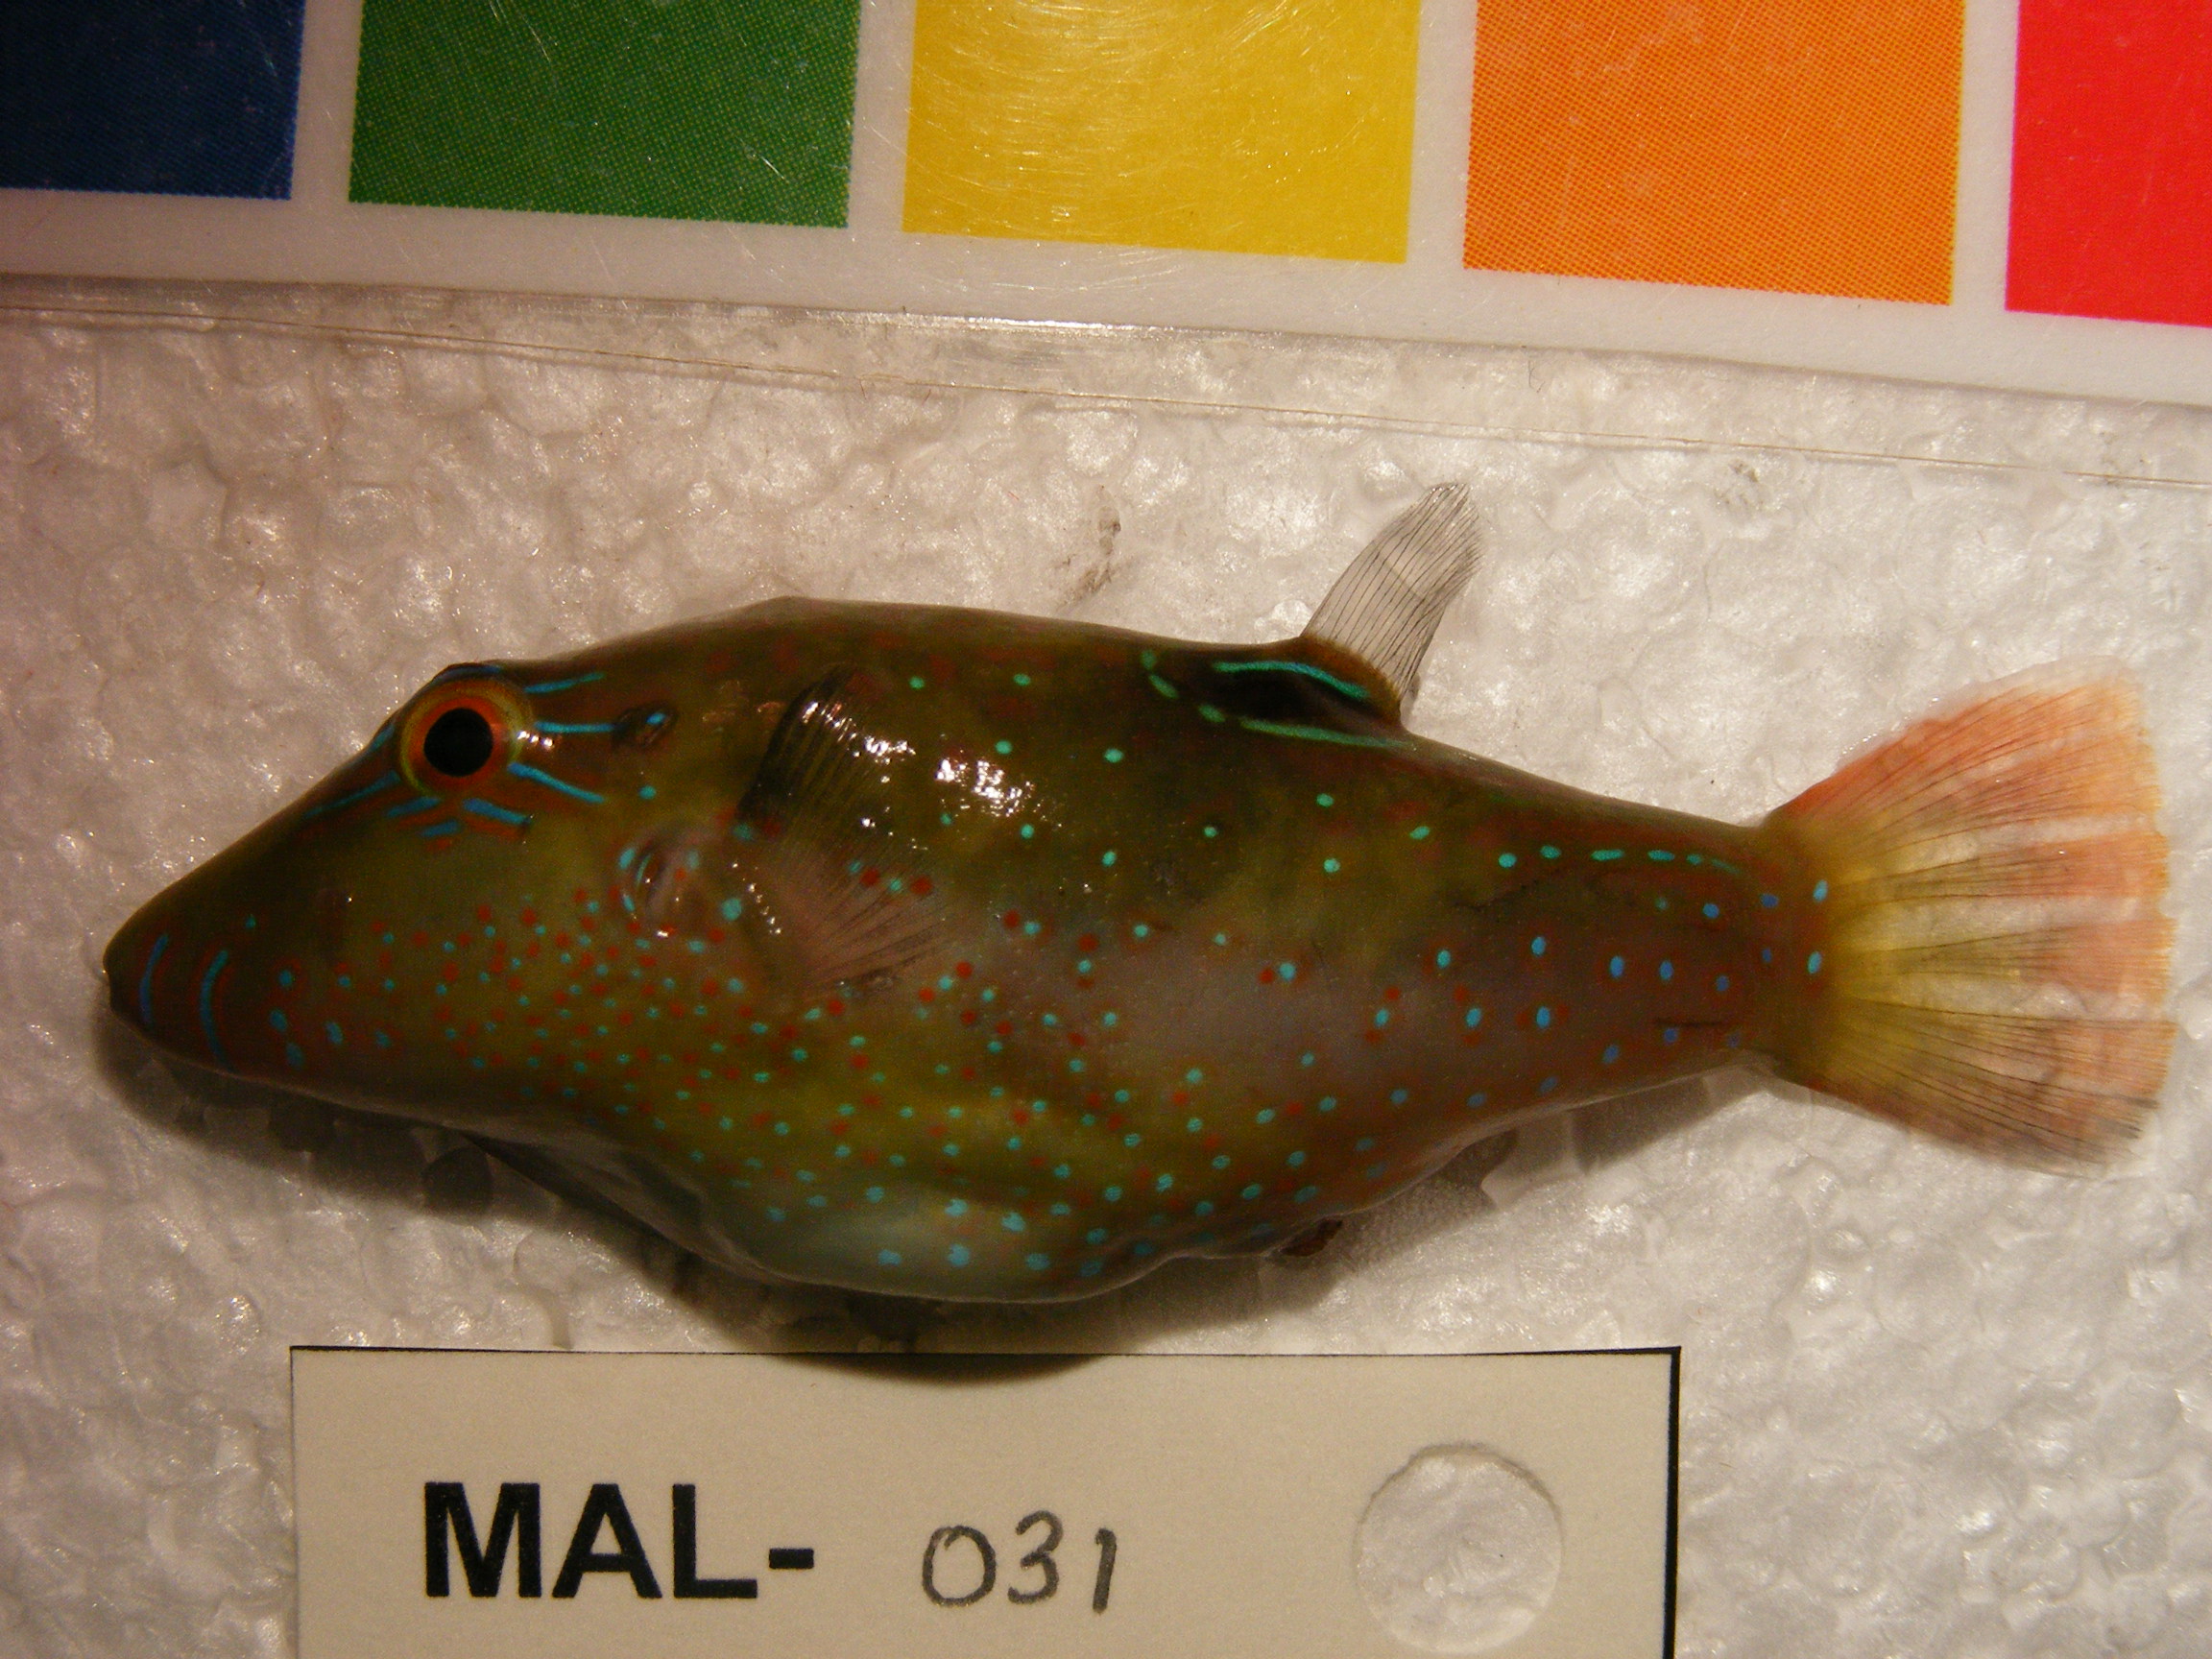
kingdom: Animalia
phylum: Chordata
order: Tetraodontiformes
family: Tetraodontidae
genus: Canthigaster
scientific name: Canthigaster bennetti
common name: Bennett's pufferfish
